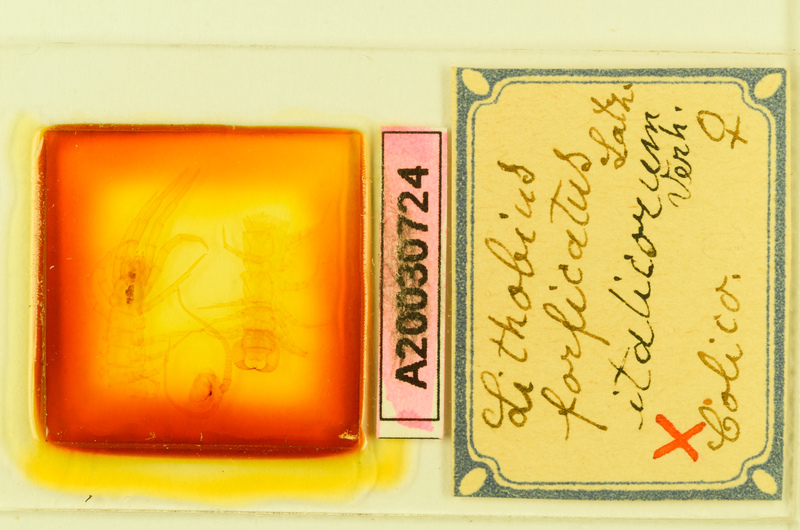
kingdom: Animalia
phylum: Arthropoda
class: Chilopoda
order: Lithobiomorpha
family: Lithobiidae
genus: Lithobius
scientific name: Lithobius forficatus
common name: Centipede
